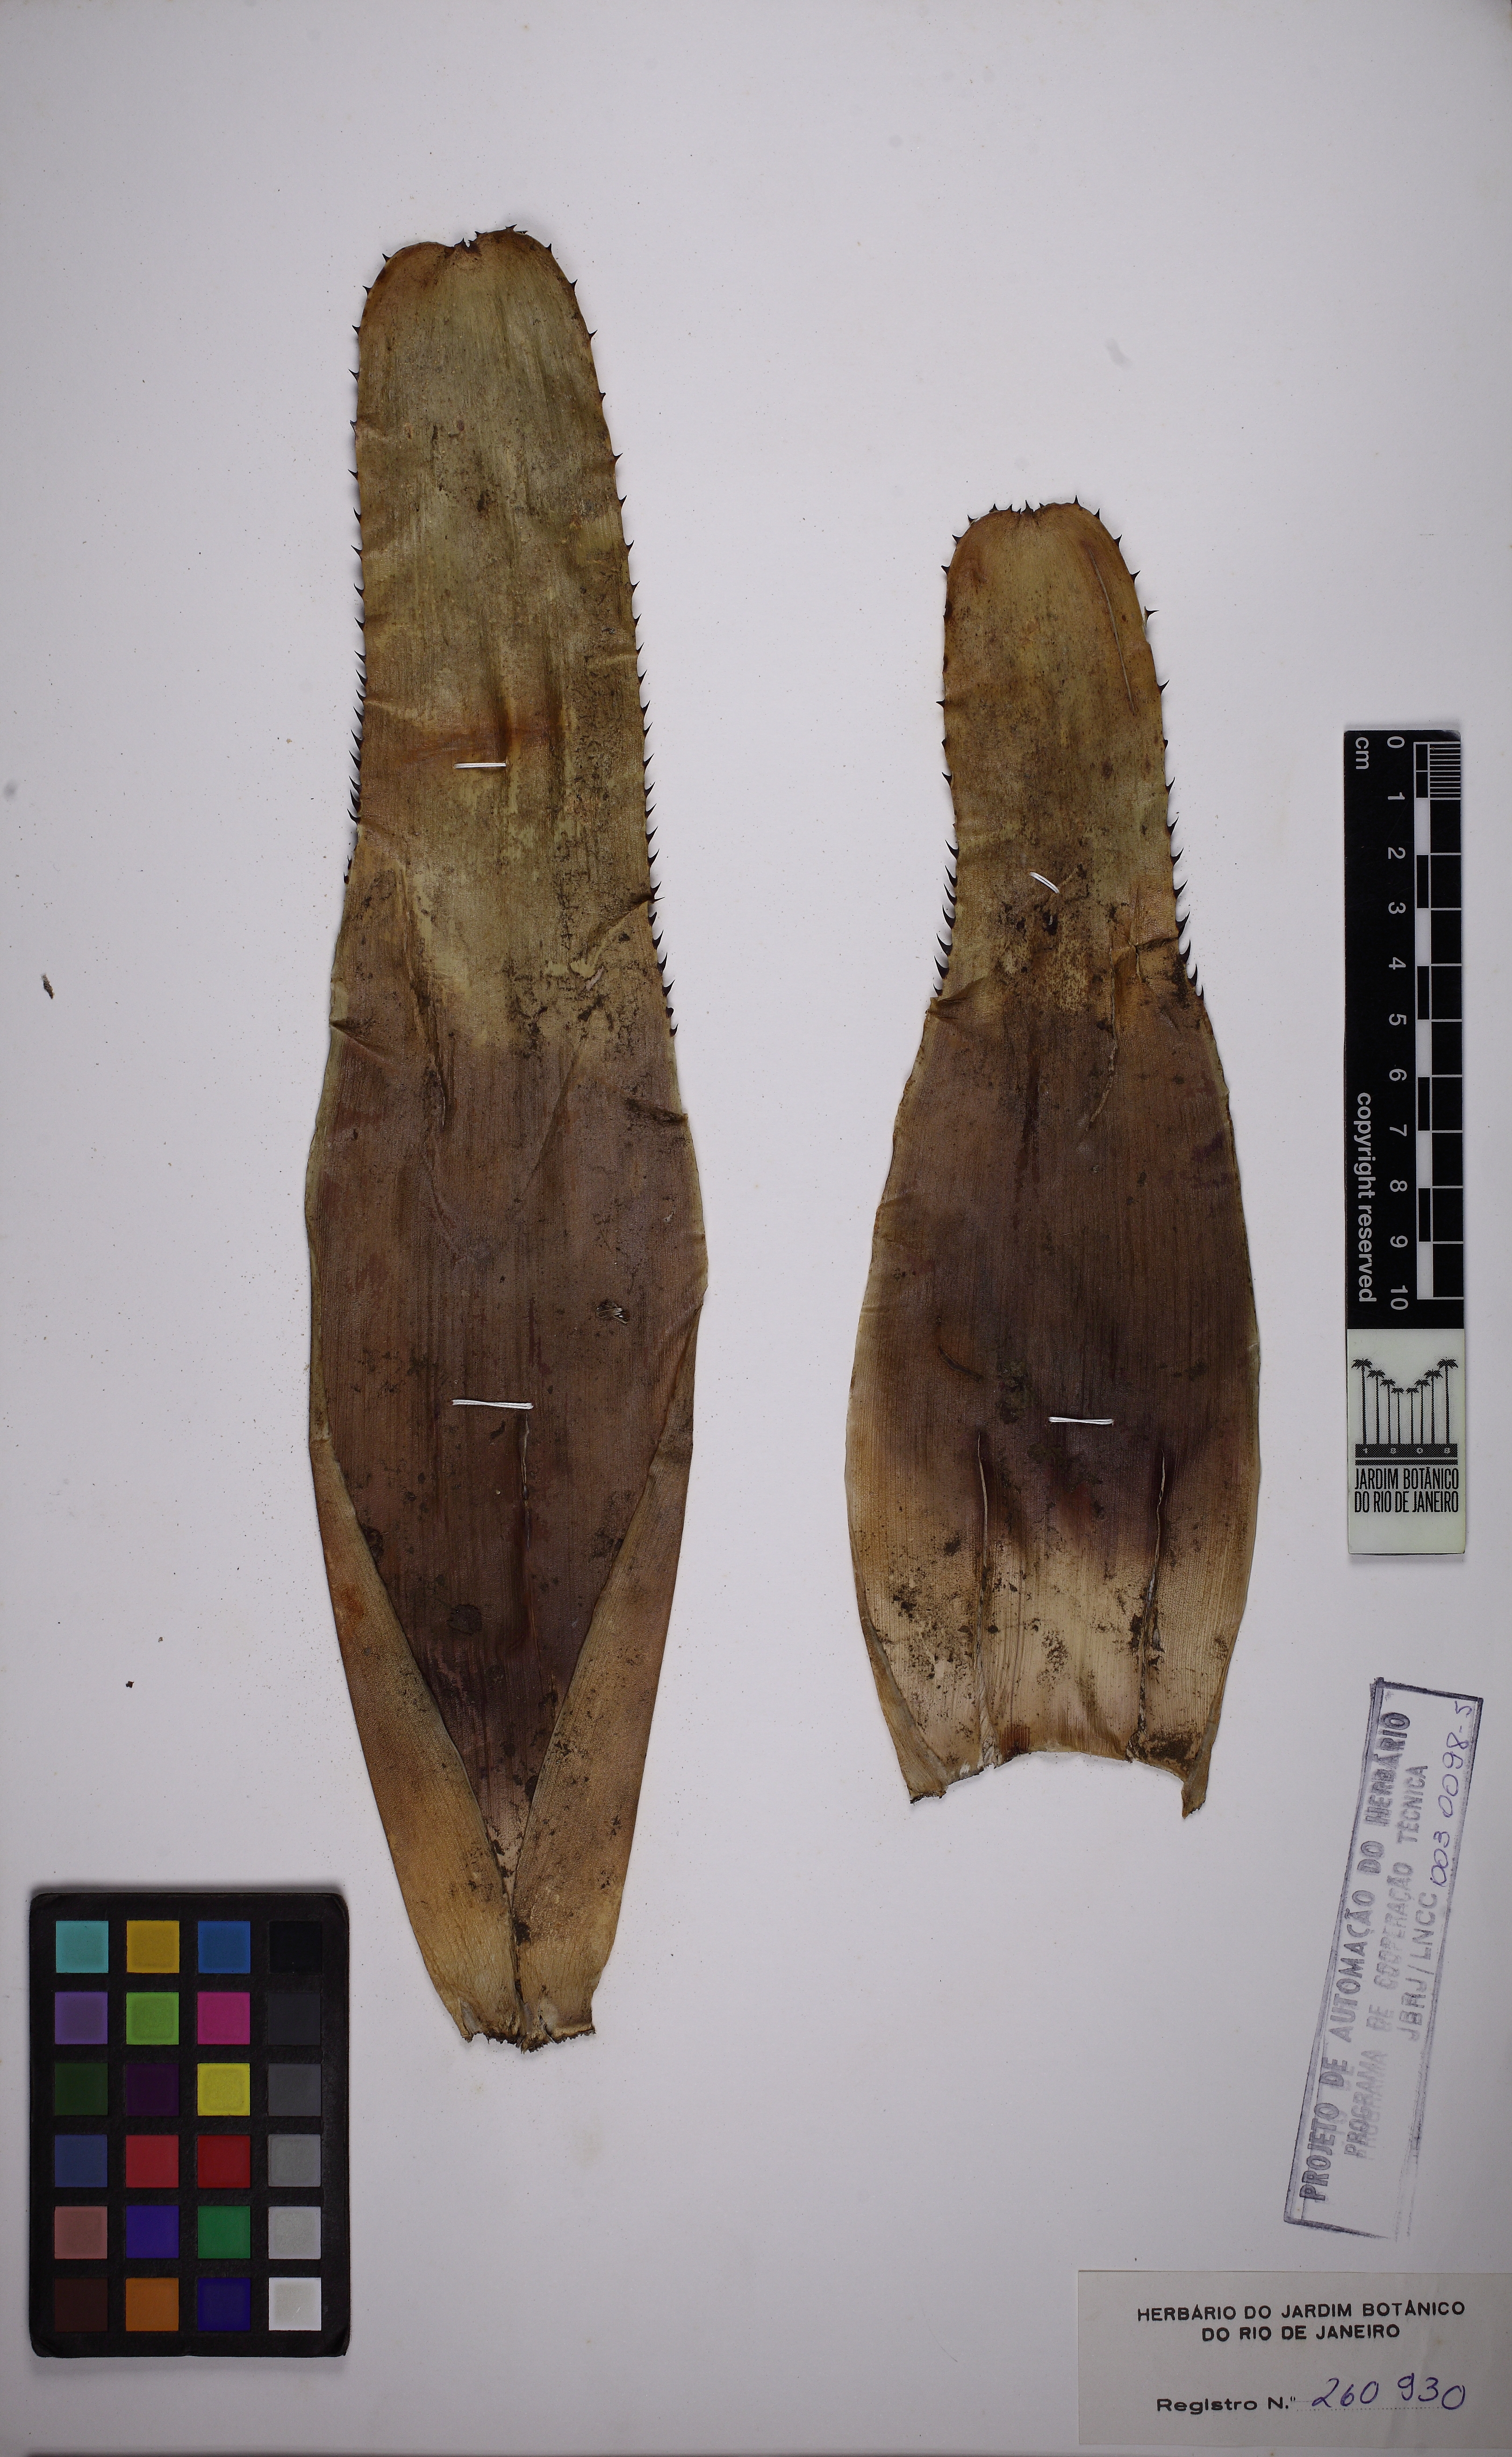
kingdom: Plantae
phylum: Tracheophyta
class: Liliopsida
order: Poales
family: Bromeliaceae
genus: Aechmea
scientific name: Aechmea caesia
